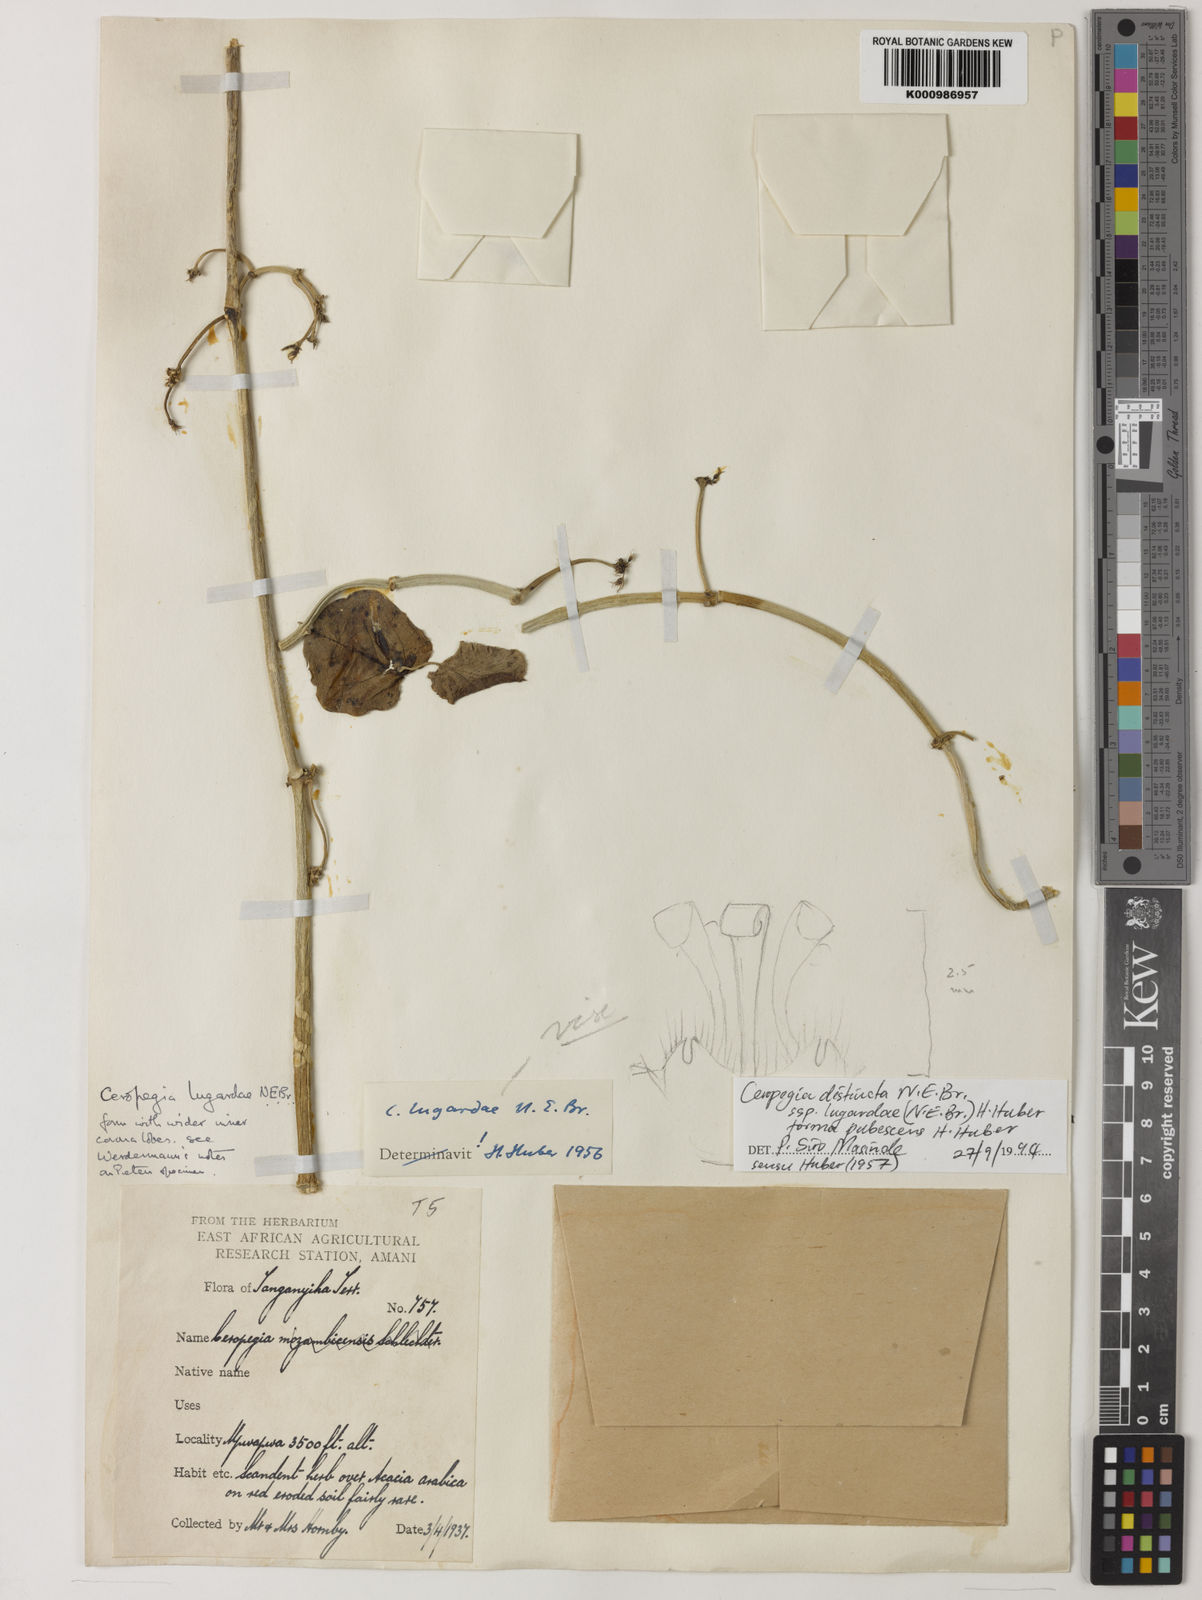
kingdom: Plantae
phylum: Tracheophyta
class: Magnoliopsida
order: Gentianales
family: Apocynaceae
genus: Ceropegia
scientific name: Ceropegia lugardiae
